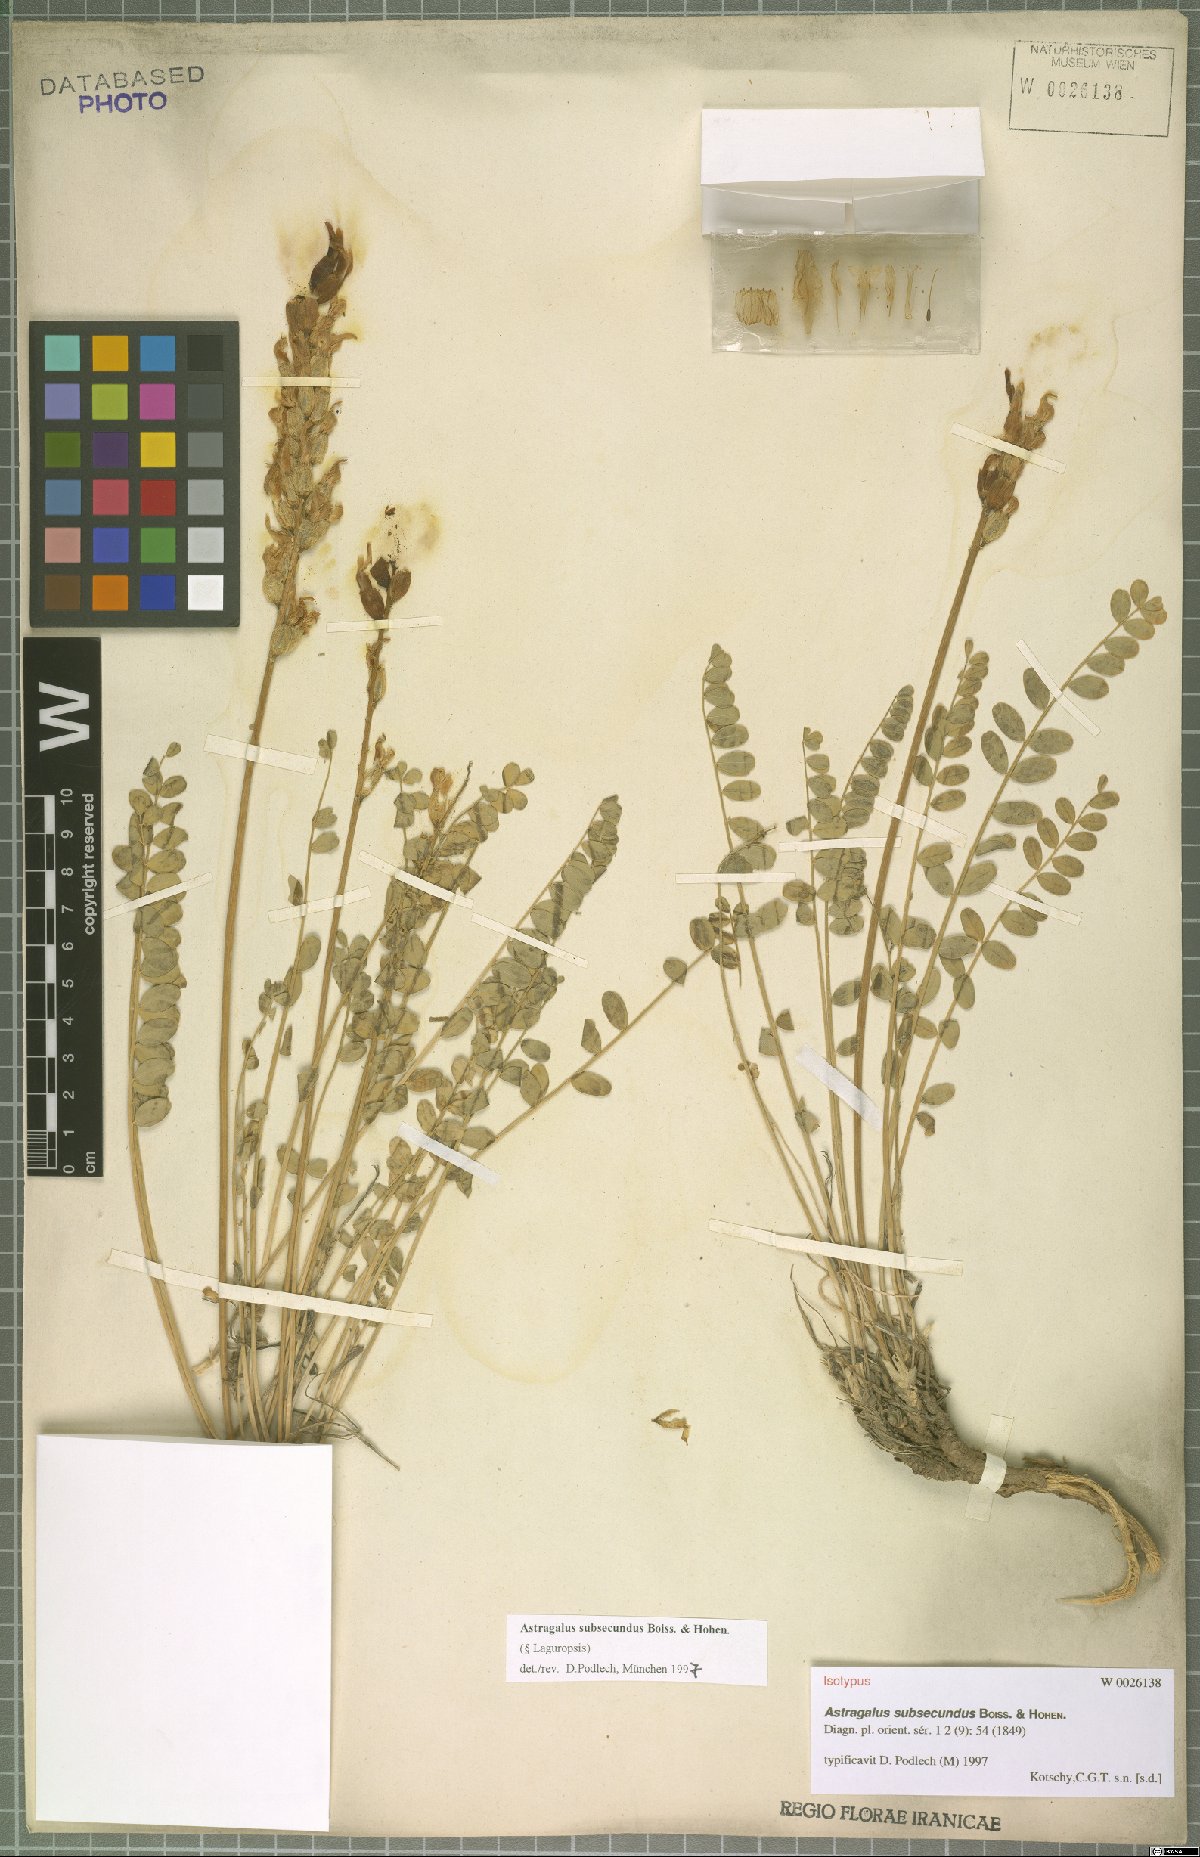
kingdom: Plantae
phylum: Tracheophyta
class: Magnoliopsida
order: Fabales
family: Fabaceae
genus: Astragalus
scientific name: Astragalus subsecundus
